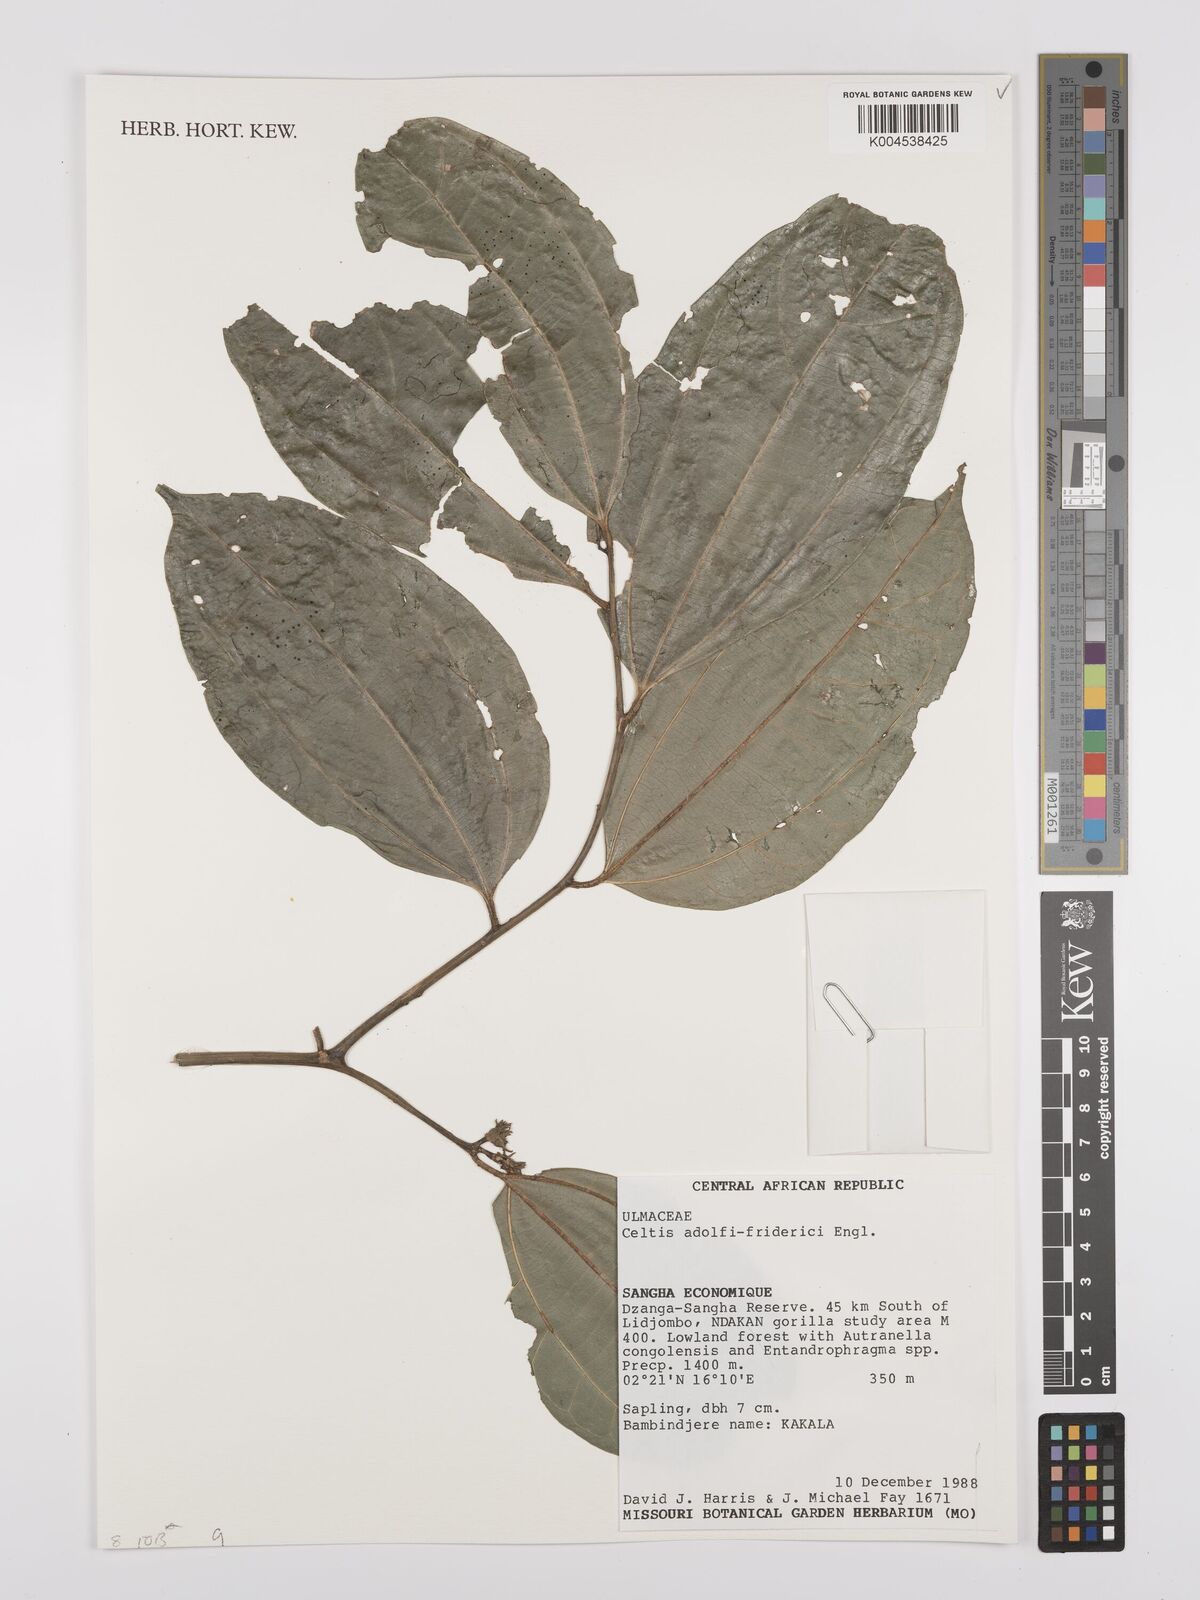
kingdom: Plantae
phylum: Tracheophyta
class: Magnoliopsida
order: Rosales
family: Cannabaceae
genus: Celtis
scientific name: Celtis adolfi-friderici
